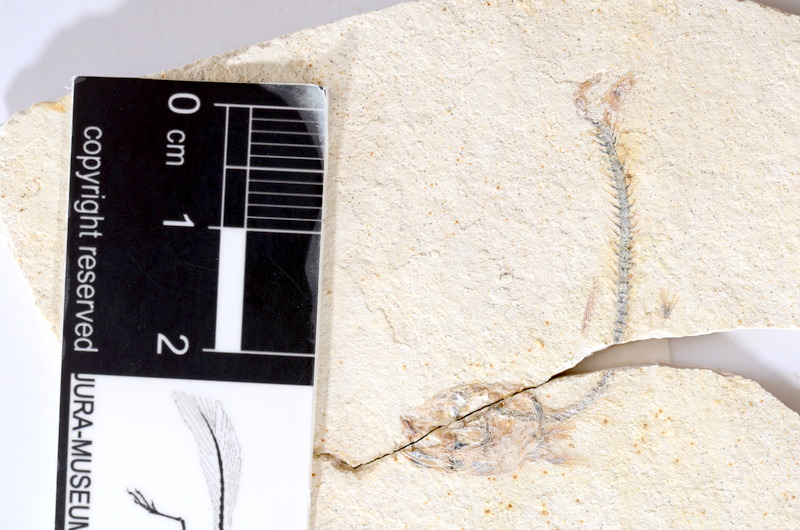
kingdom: Animalia
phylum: Chordata
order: Salmoniformes
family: Orthogonikleithridae
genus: Orthogonikleithrus
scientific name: Orthogonikleithrus hoelli
